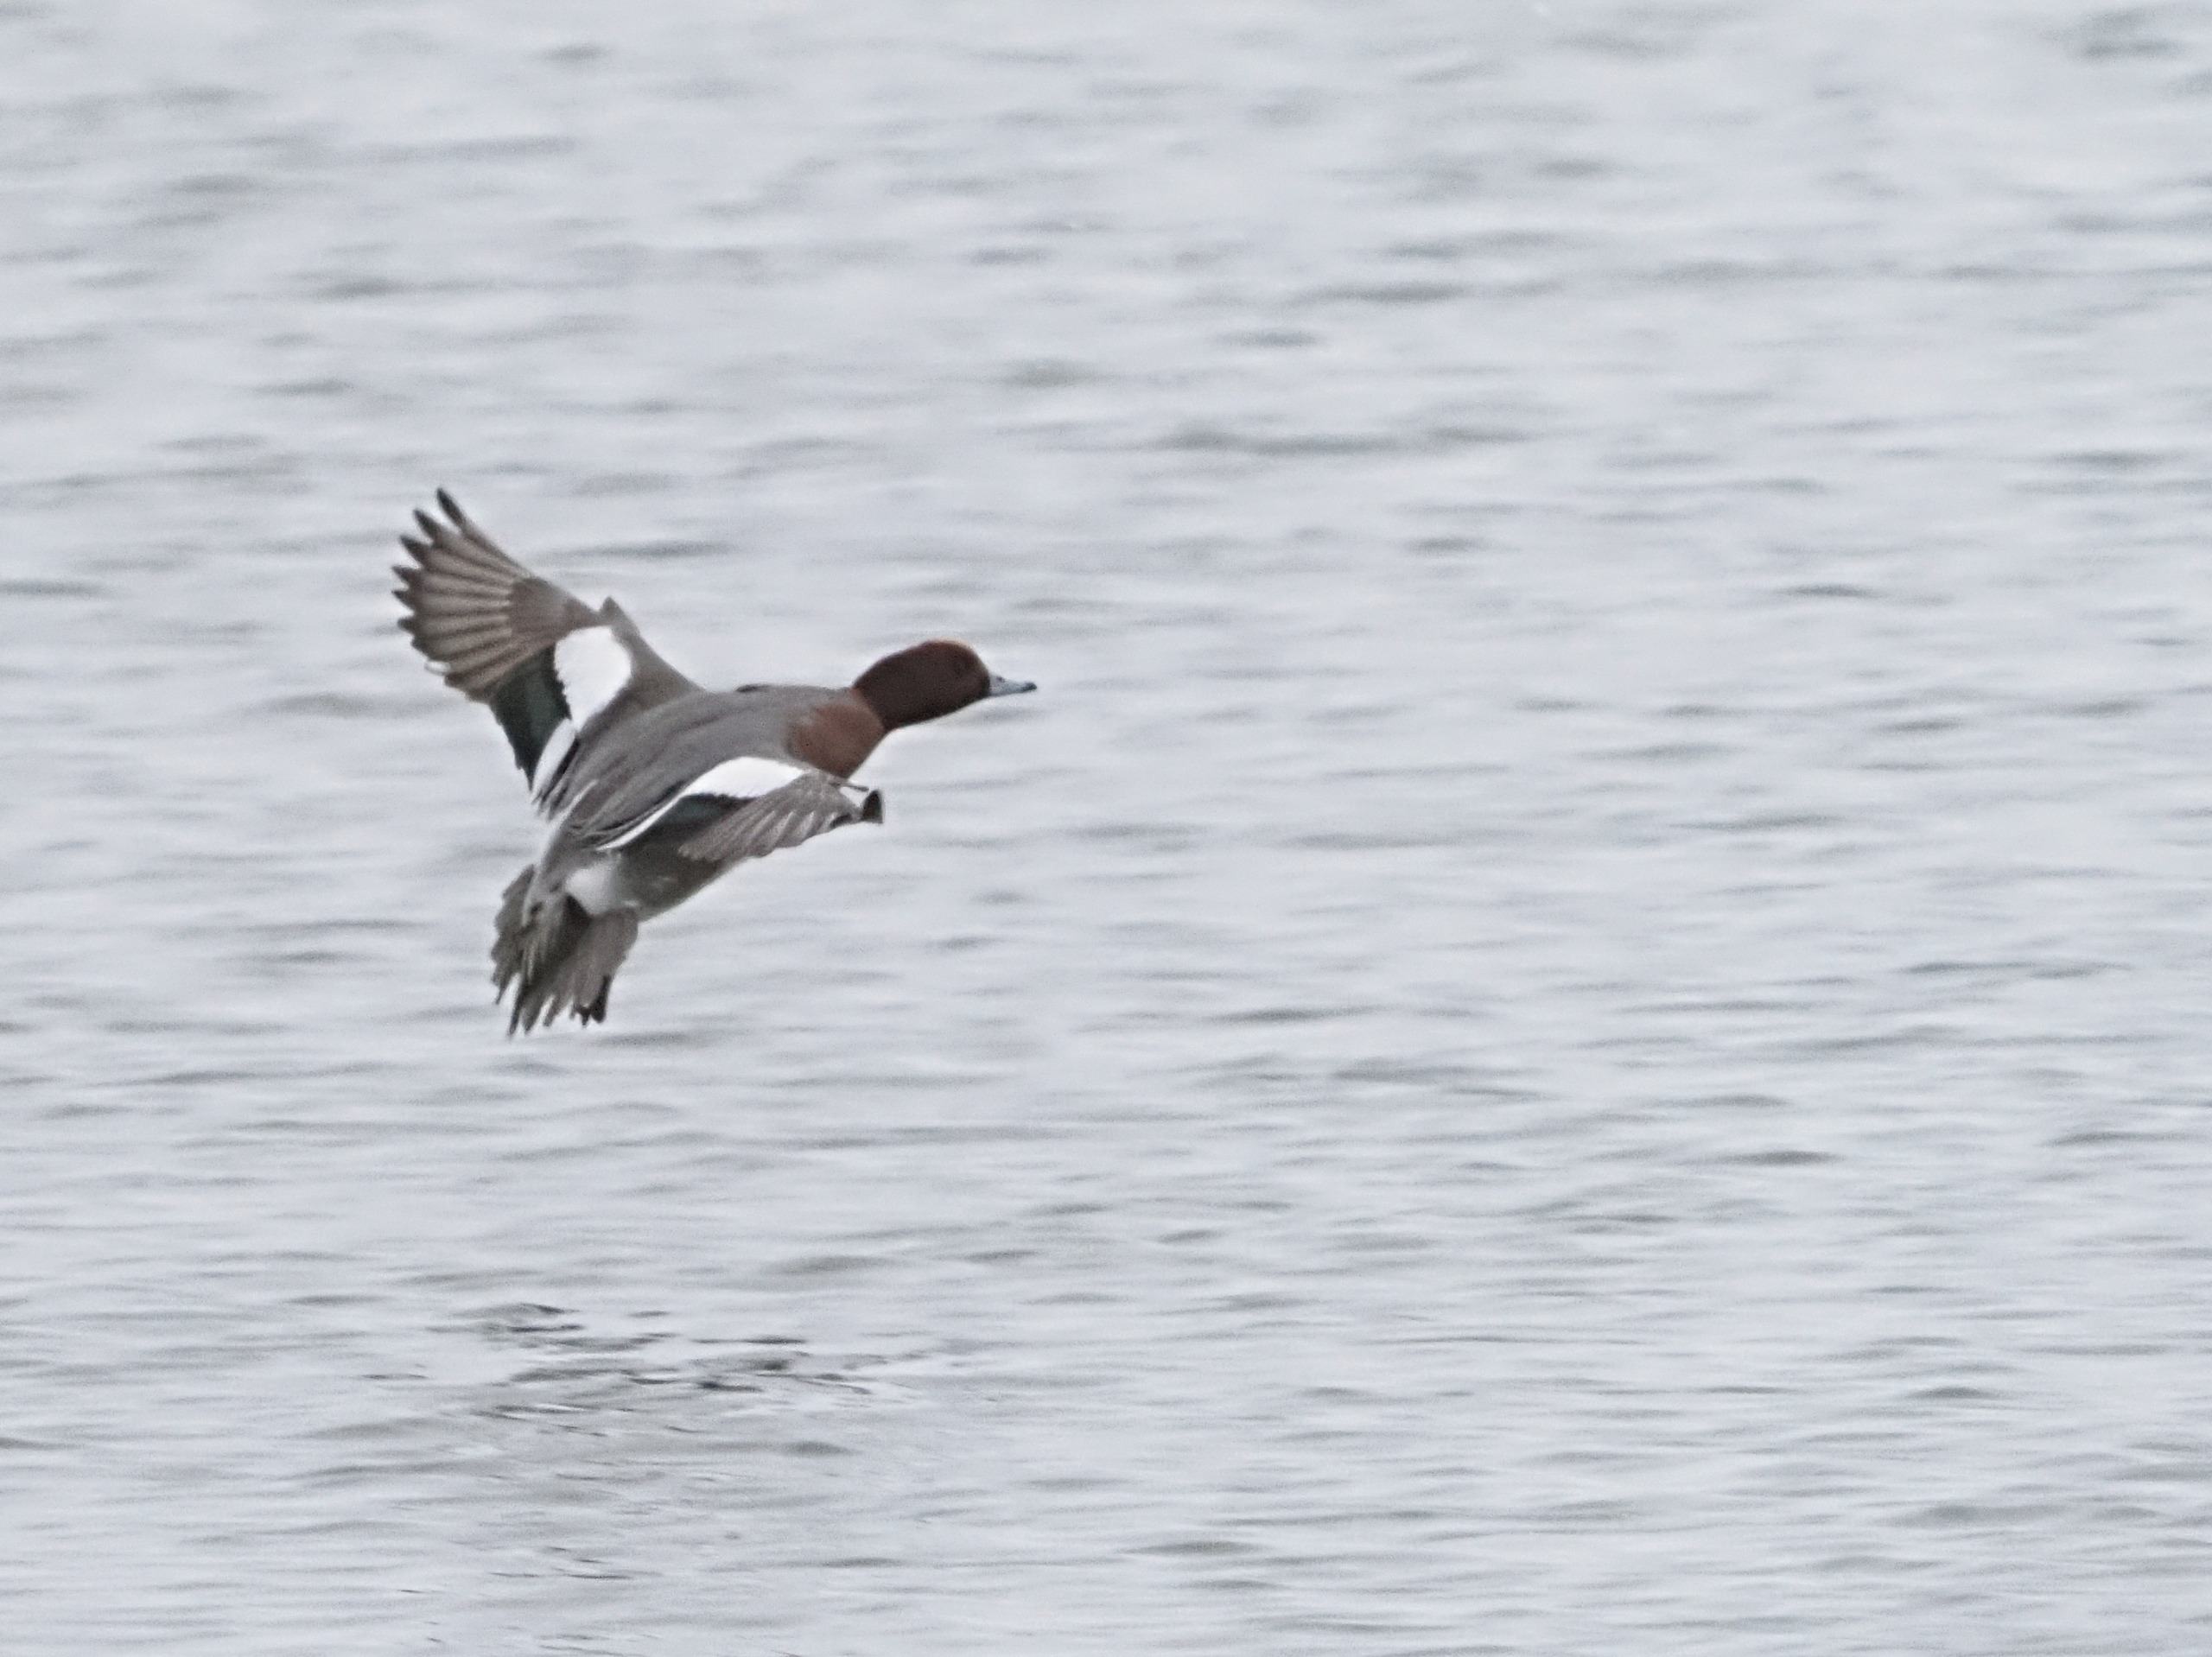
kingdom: Animalia
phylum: Chordata
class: Aves
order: Anseriformes
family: Anatidae
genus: Mareca
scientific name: Mareca penelope
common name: Pibeand
